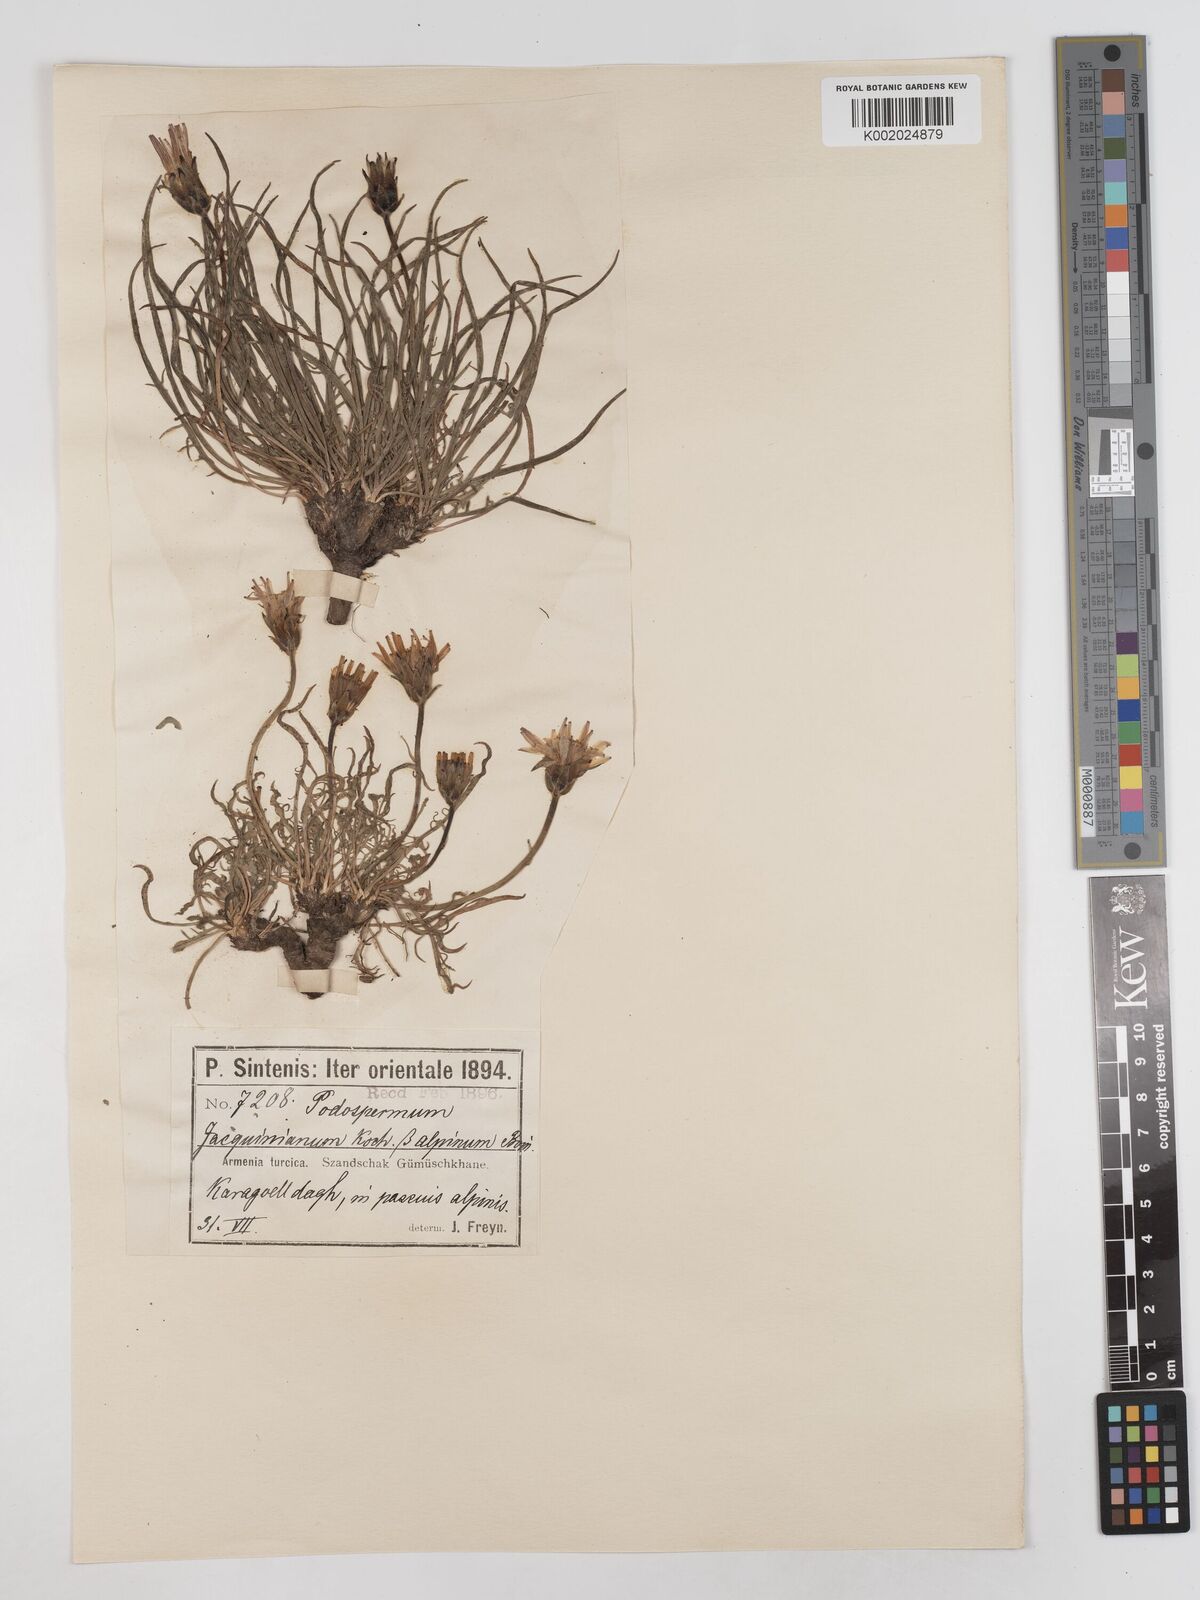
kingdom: Plantae
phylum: Tracheophyta
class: Magnoliopsida
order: Asterales
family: Asteraceae
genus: Scorzonera
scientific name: Scorzonera cana
